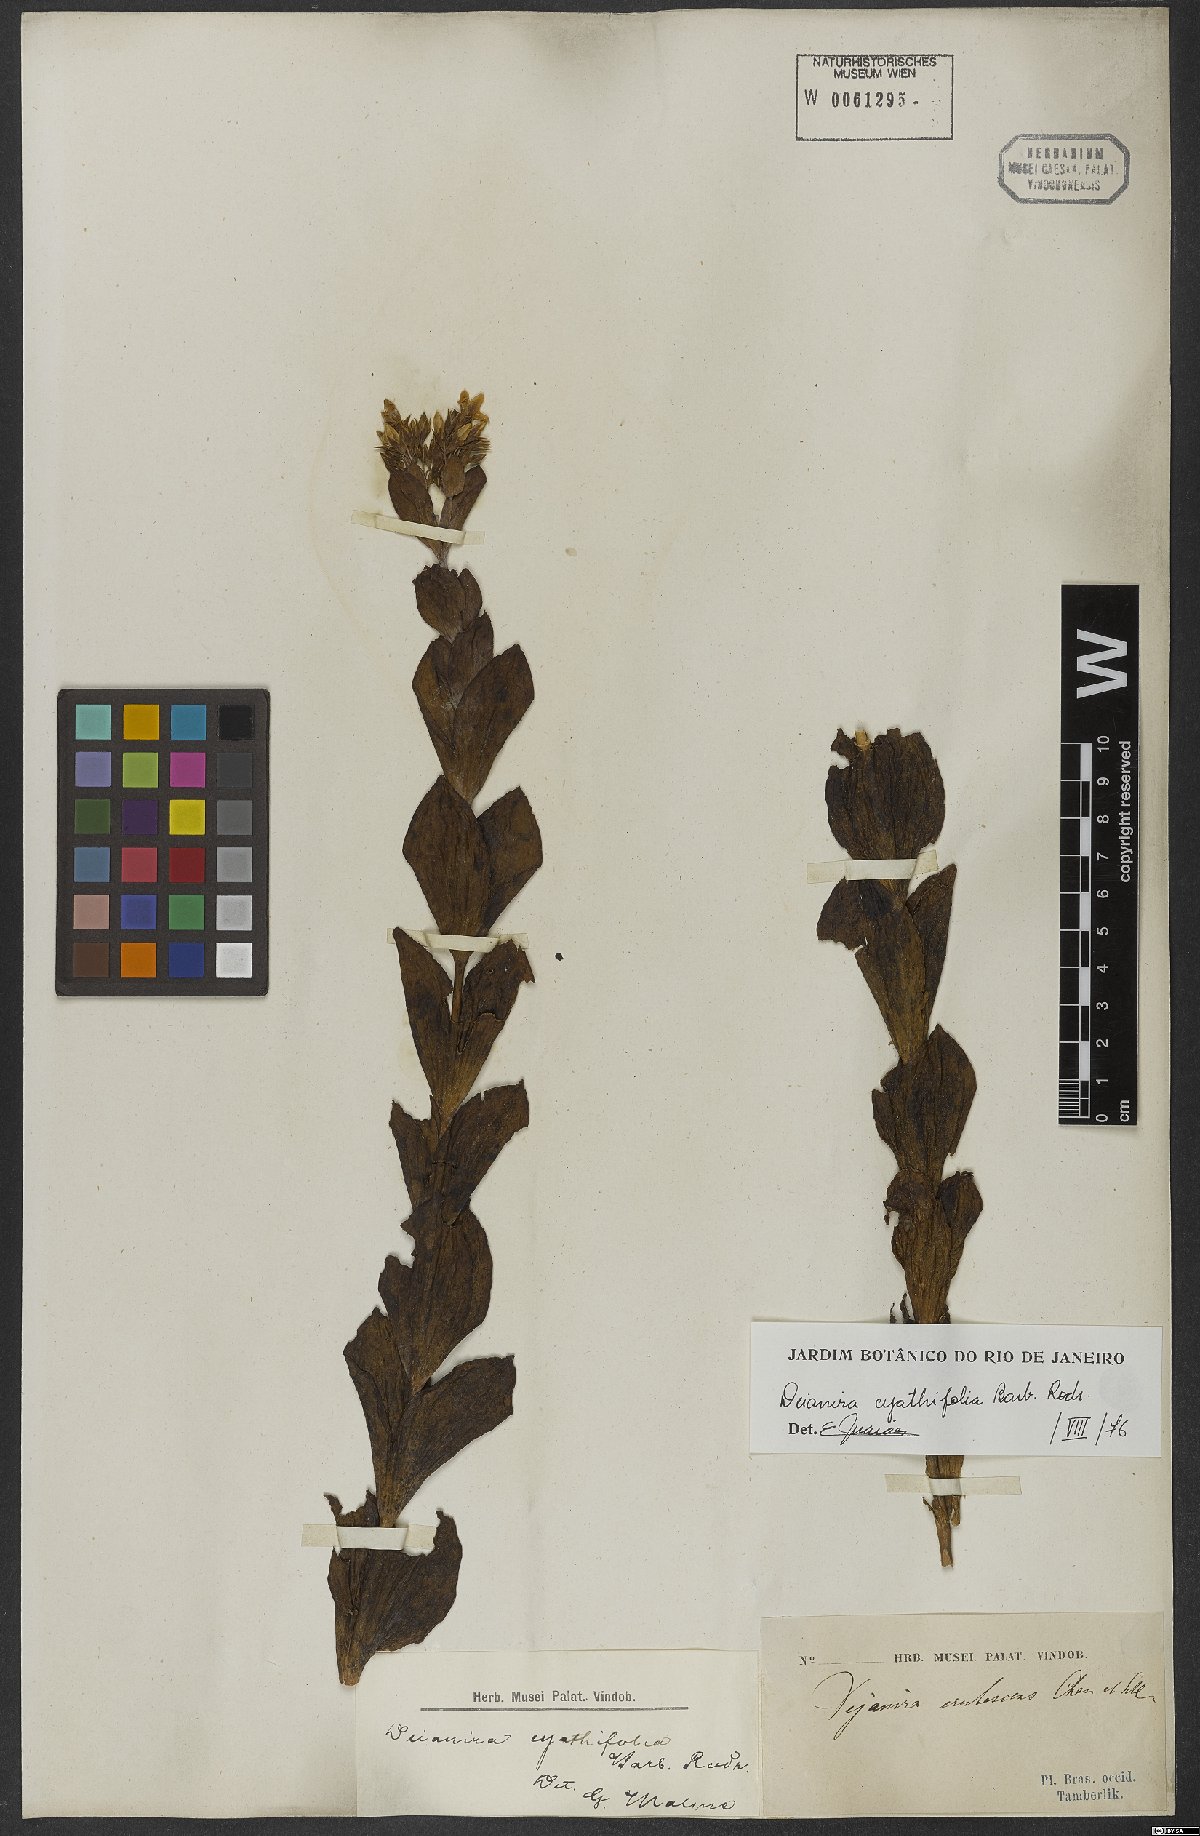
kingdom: Plantae
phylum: Tracheophyta
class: Magnoliopsida
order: Gentianales
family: Gentianaceae
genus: Deianira
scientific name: Deianira cyathifolia
